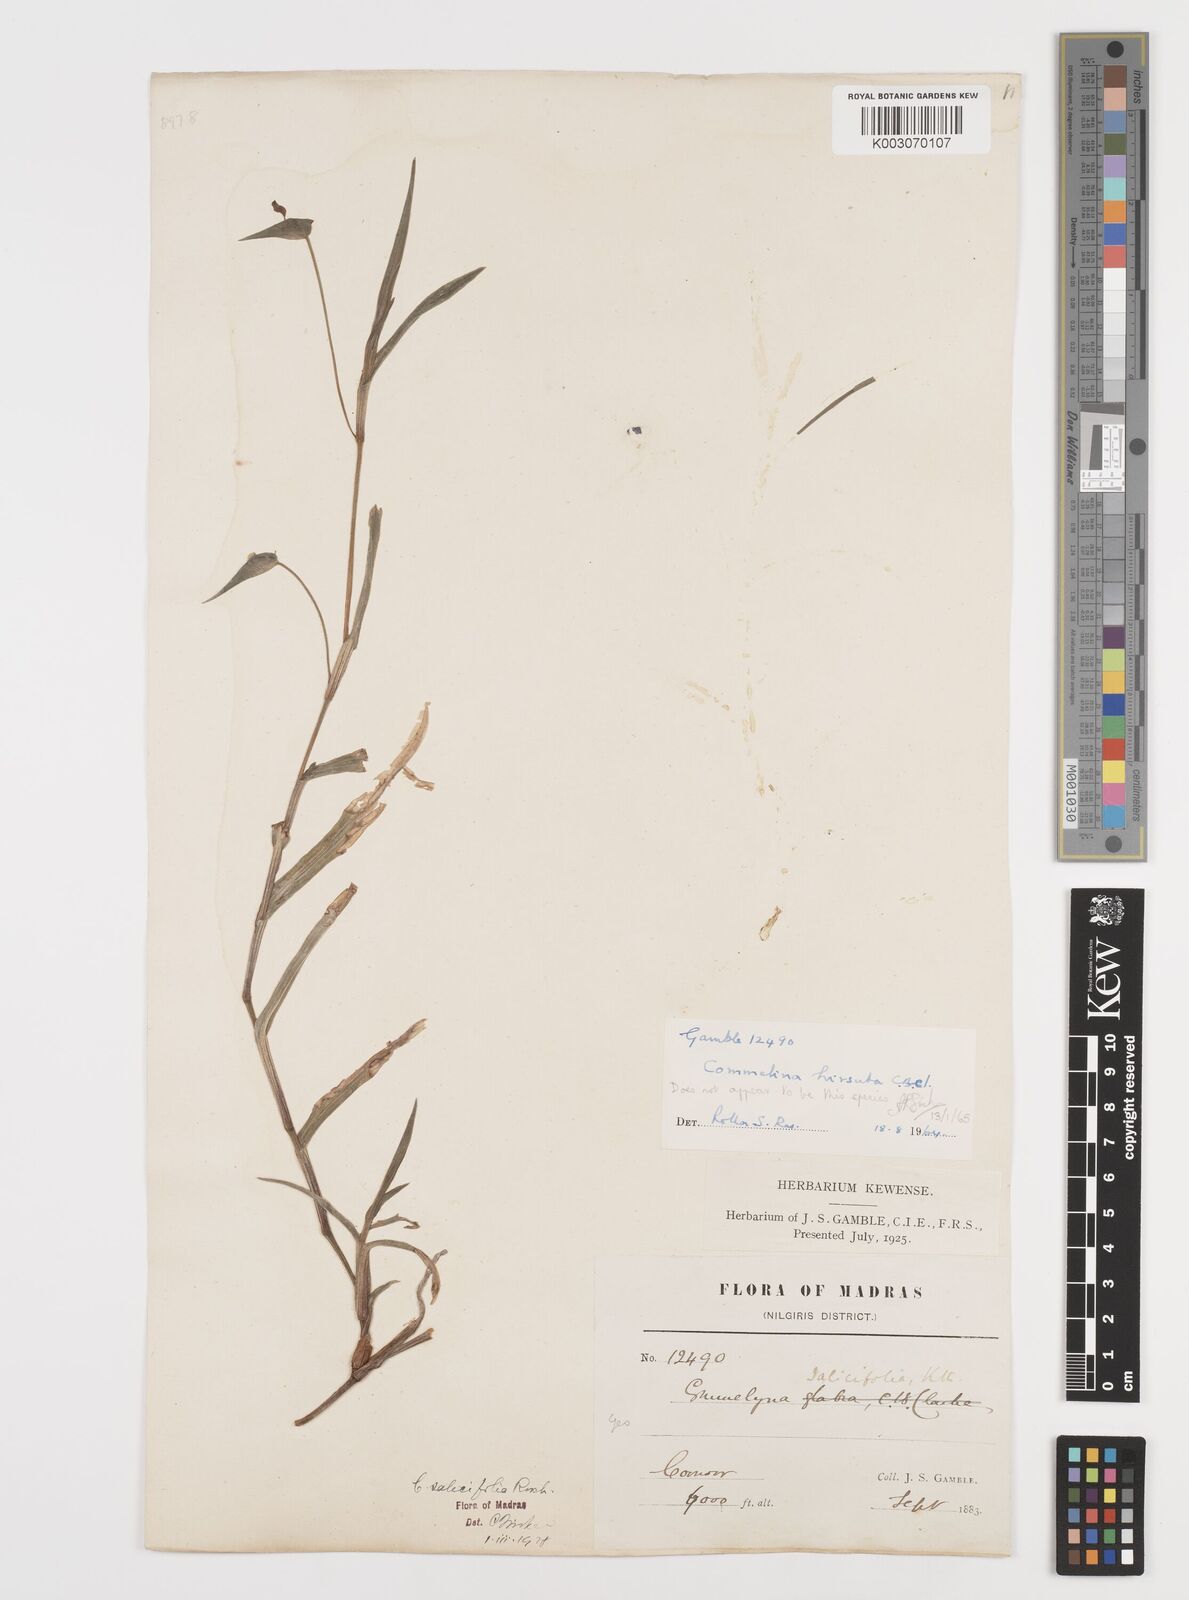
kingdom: Plantae
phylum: Tracheophyta
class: Liliopsida
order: Commelinales
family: Commelinaceae
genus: Commelina
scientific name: Commelina hirsuta
